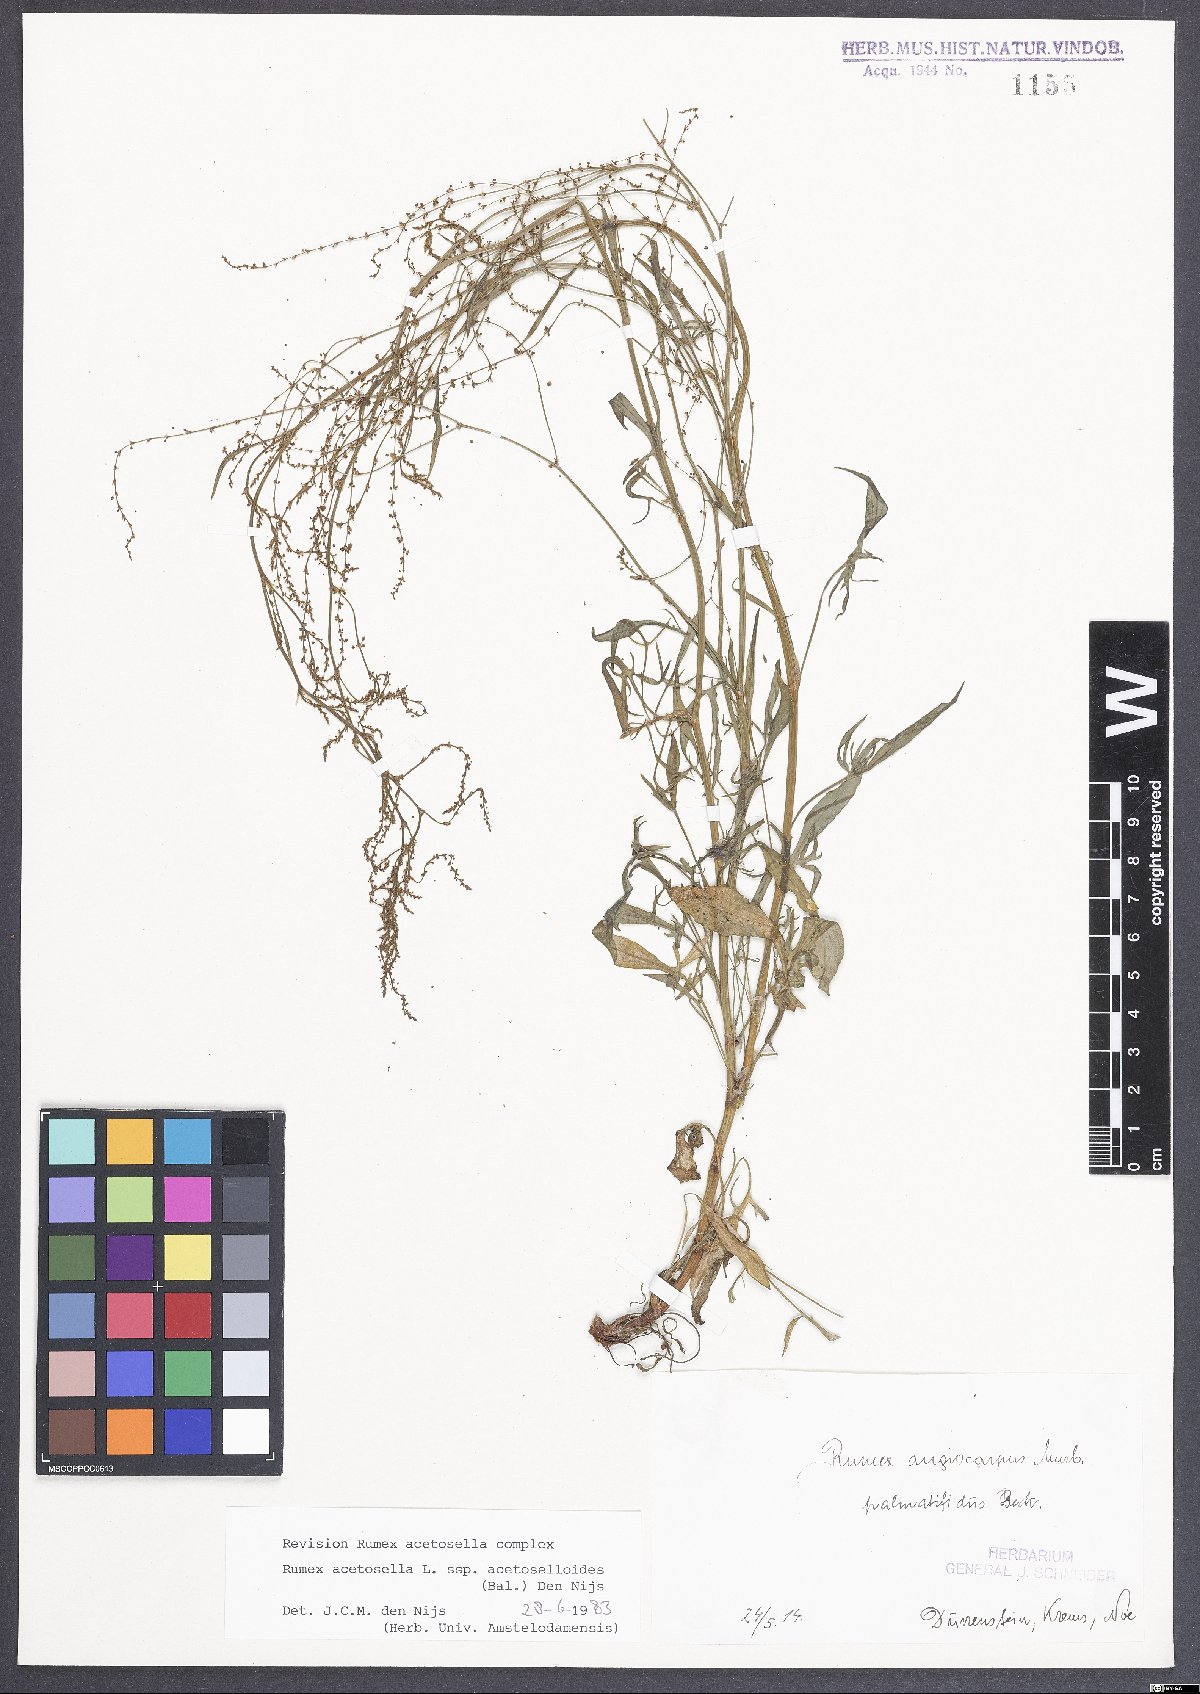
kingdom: Plantae
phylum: Tracheophyta
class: Magnoliopsida
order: Caryophyllales
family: Polygonaceae
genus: Rumex
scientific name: Rumex acetosella
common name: Common sheep sorrel
